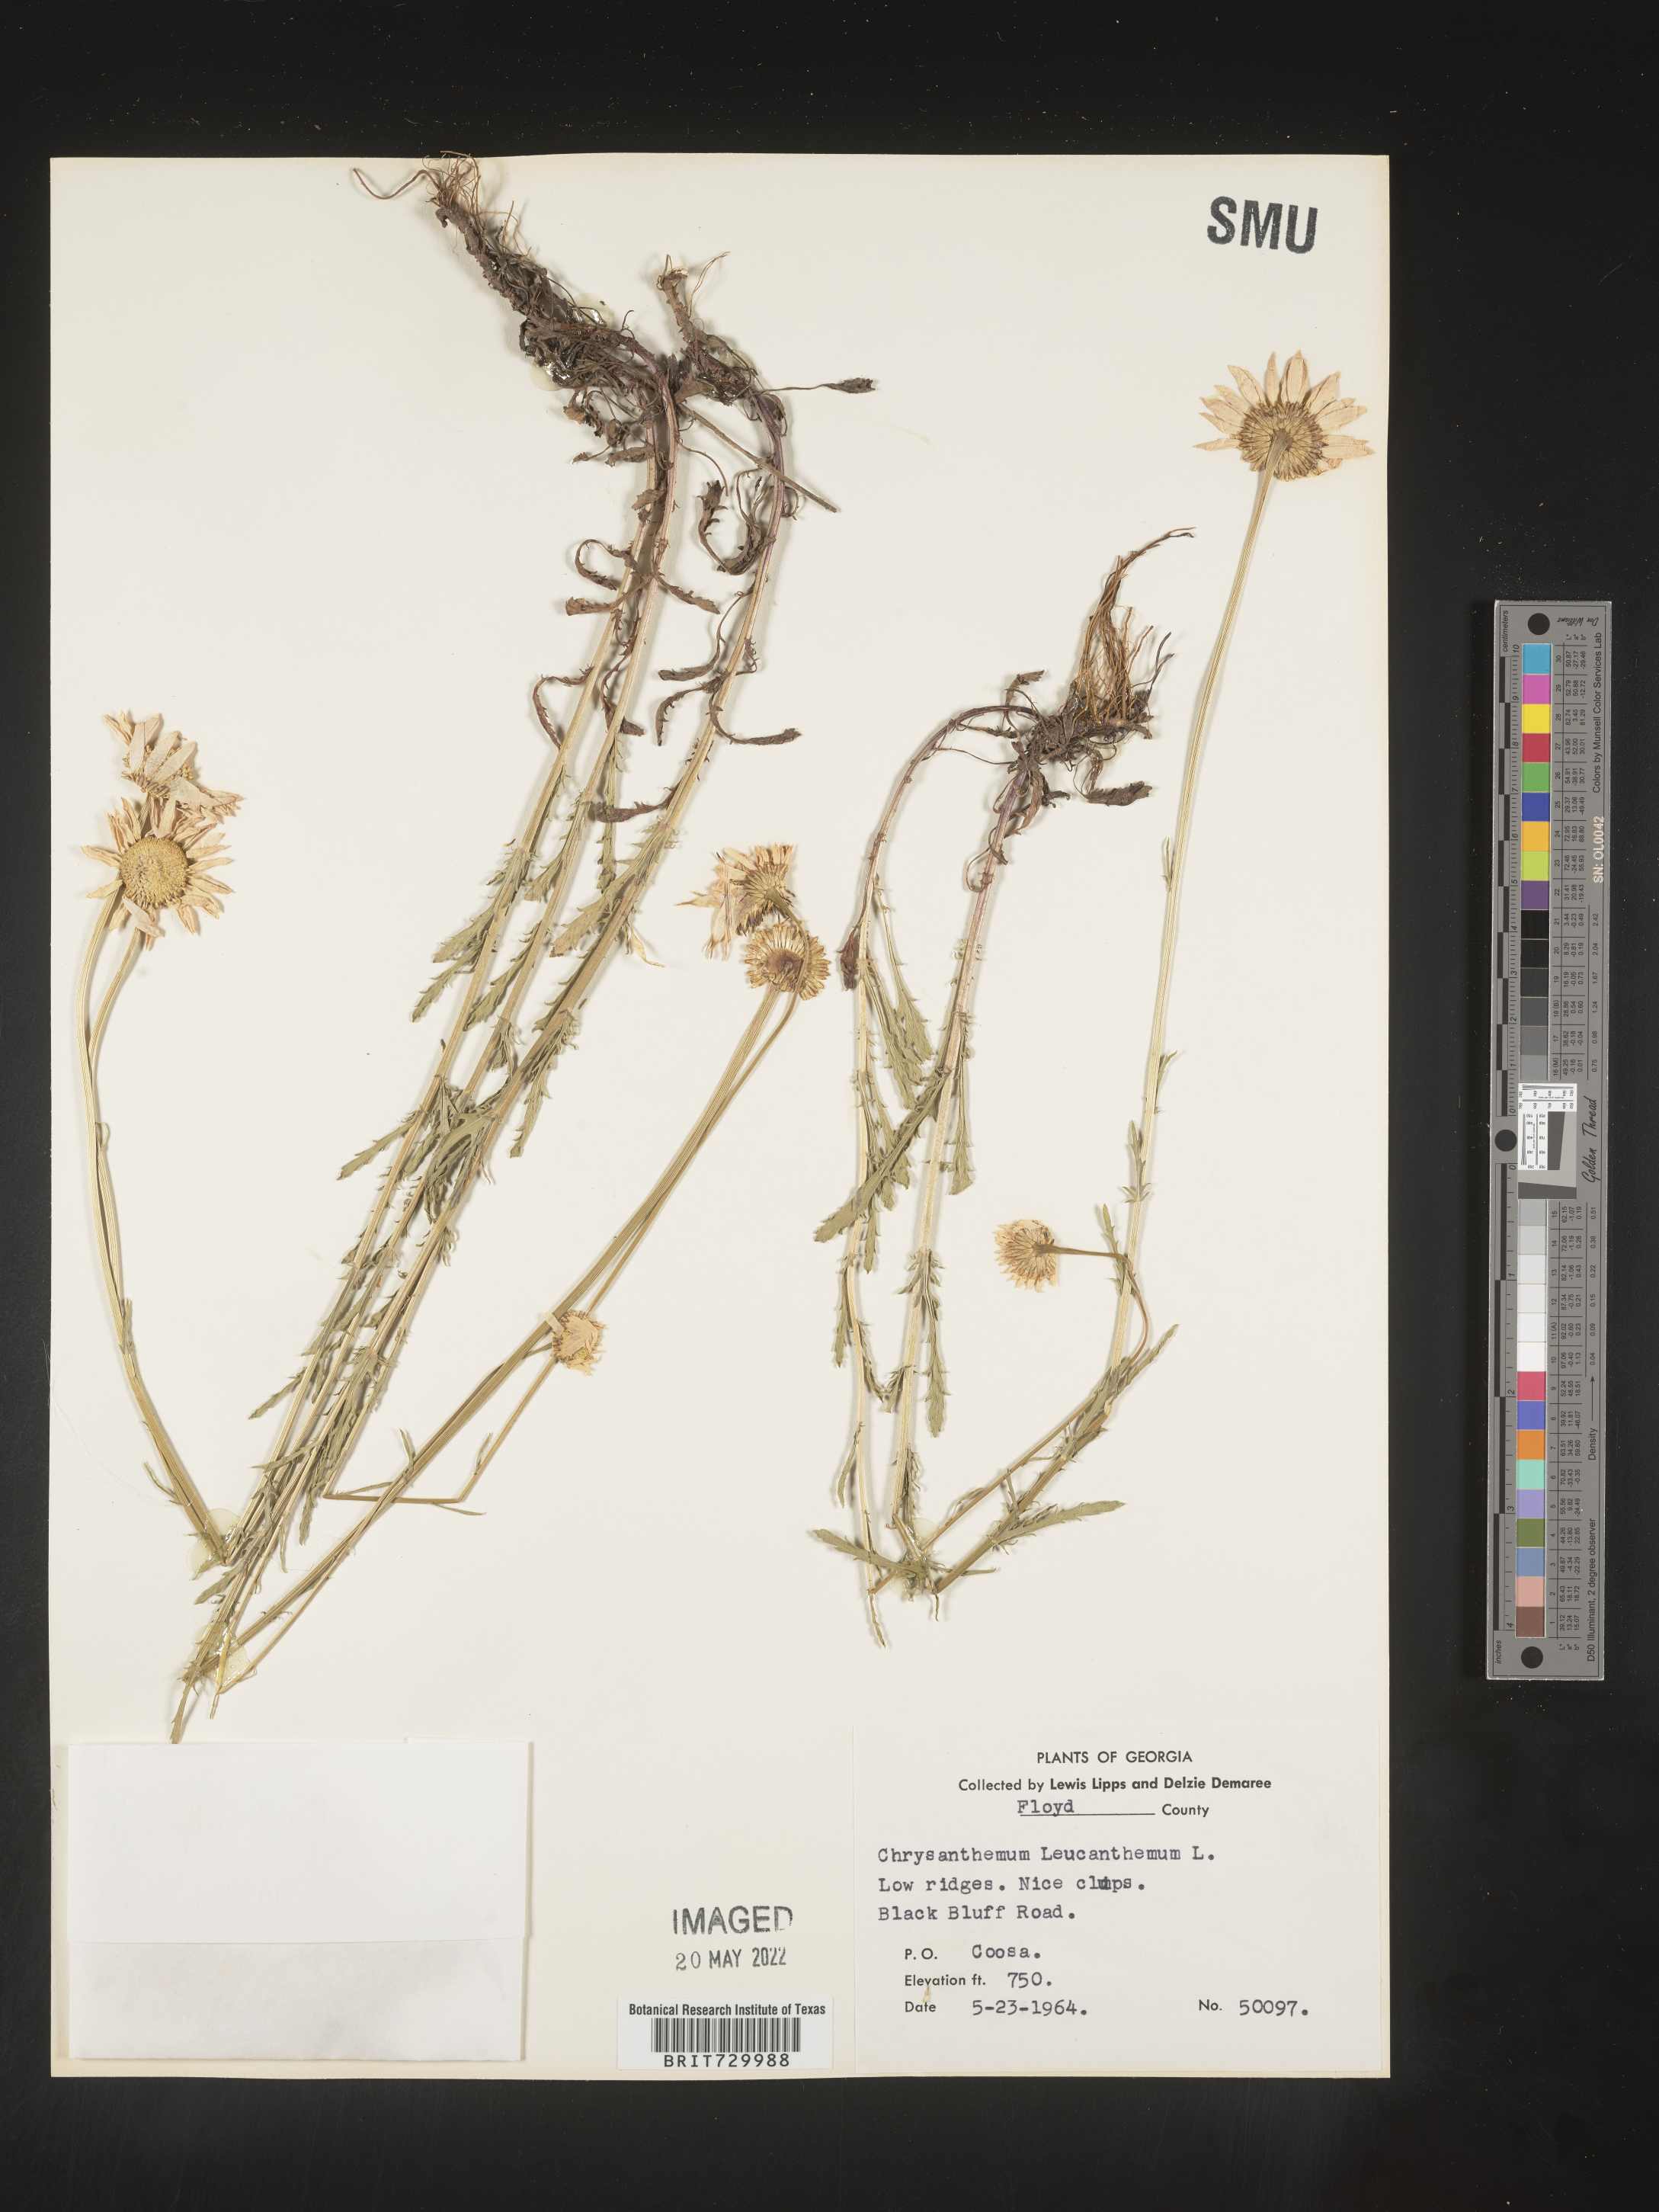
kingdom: Plantae
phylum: Tracheophyta
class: Magnoliopsida
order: Asterales
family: Asteraceae
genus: Leucanthemum
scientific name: Leucanthemum vulgare
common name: Oxeye daisy
